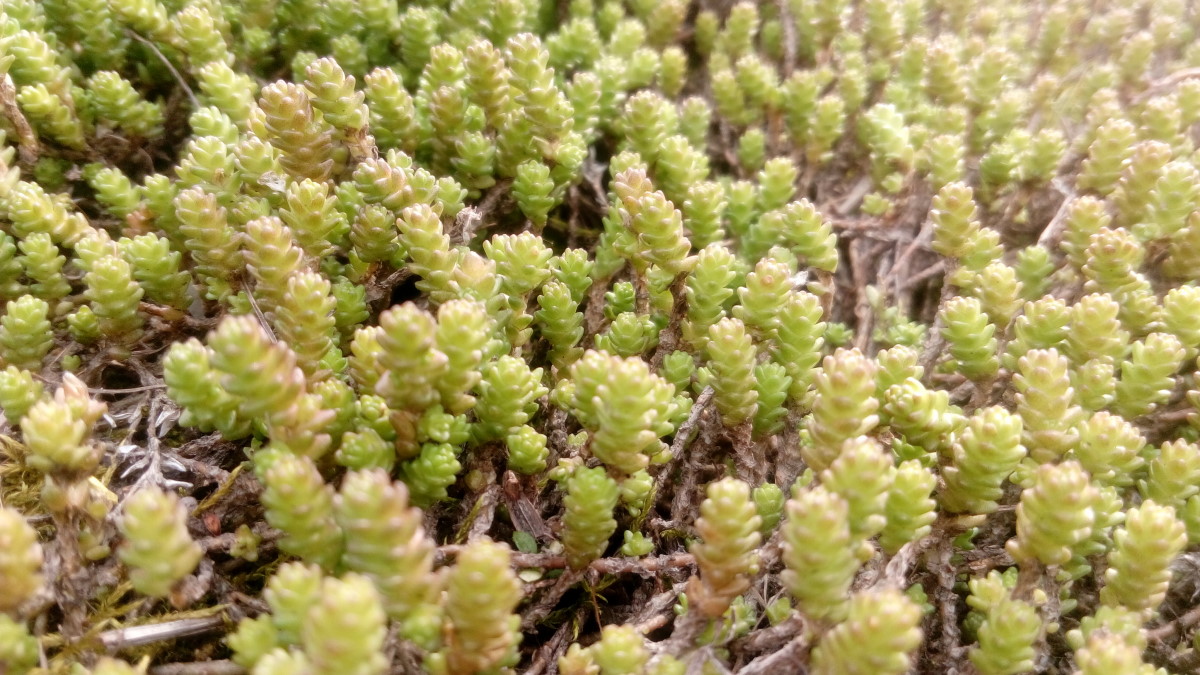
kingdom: Plantae
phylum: Tracheophyta
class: Magnoliopsida
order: Saxifragales
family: Crassulaceae
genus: Sedum
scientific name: Sedum acre
